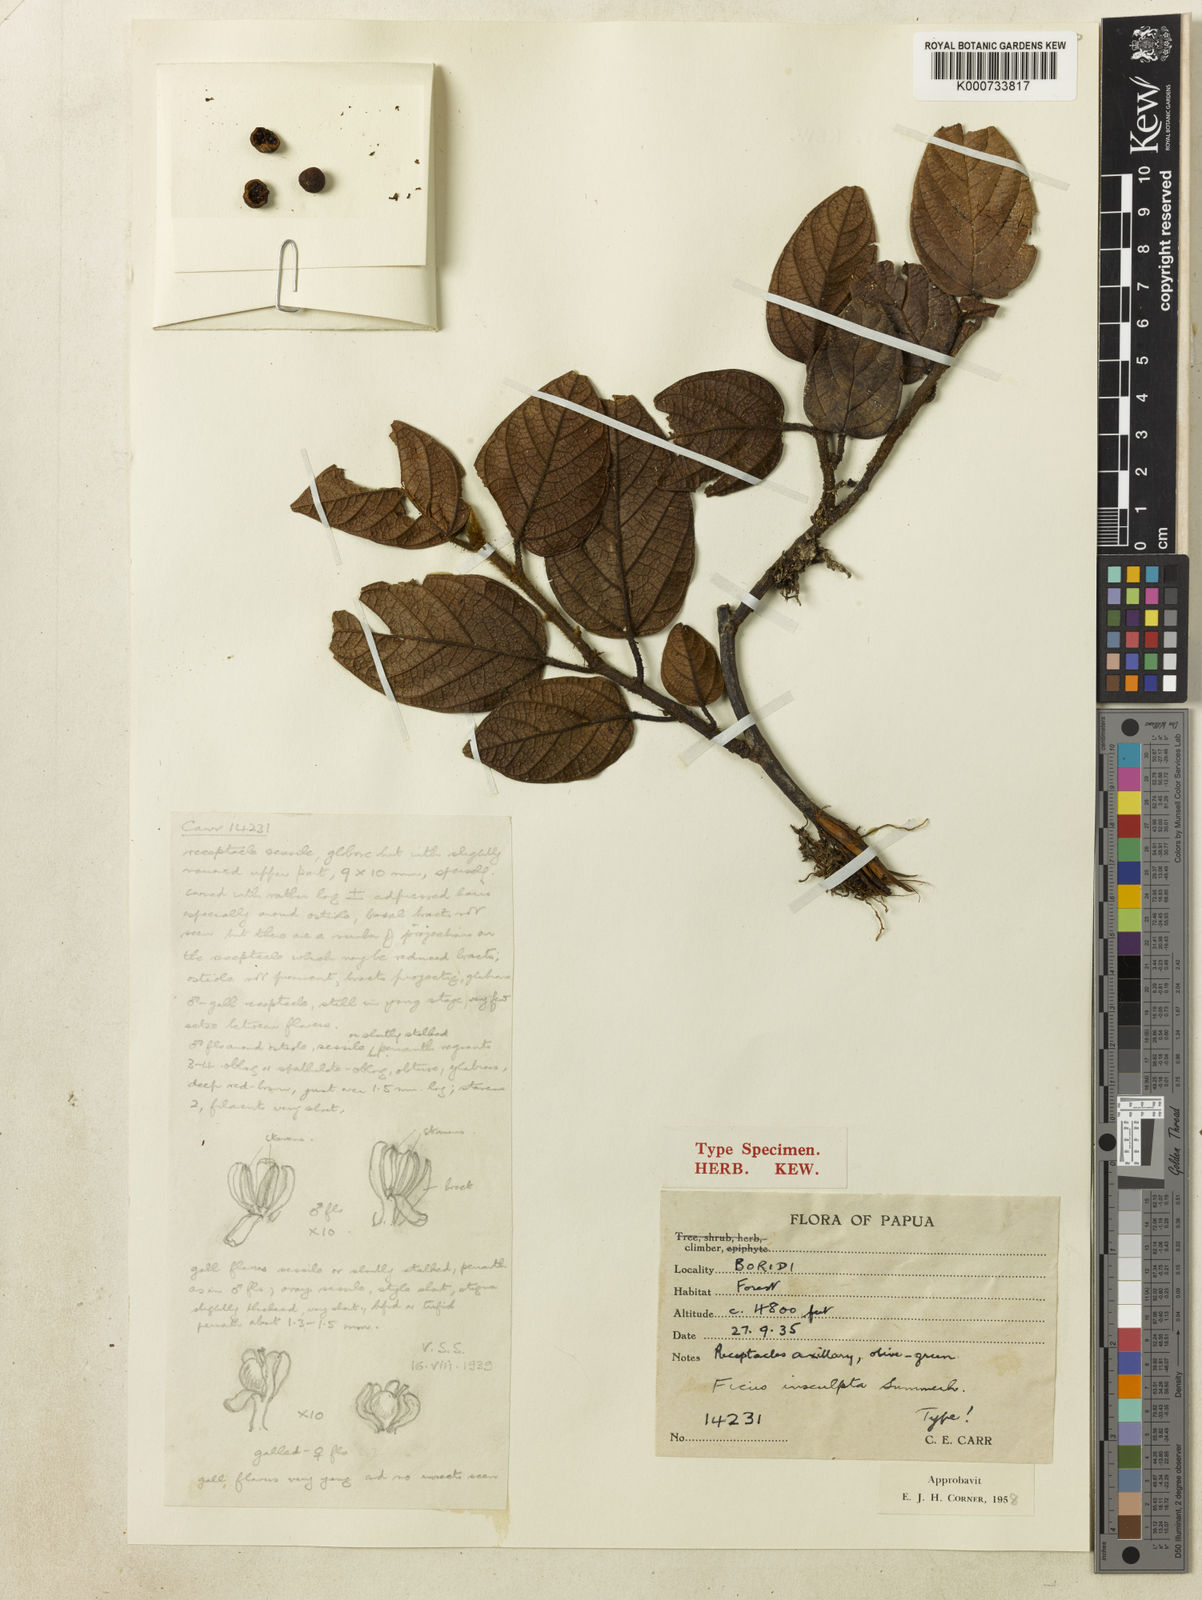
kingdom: Plantae
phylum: Tracheophyta
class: Magnoliopsida
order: Rosales
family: Moraceae
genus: Ficus
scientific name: Ficus insculpta
